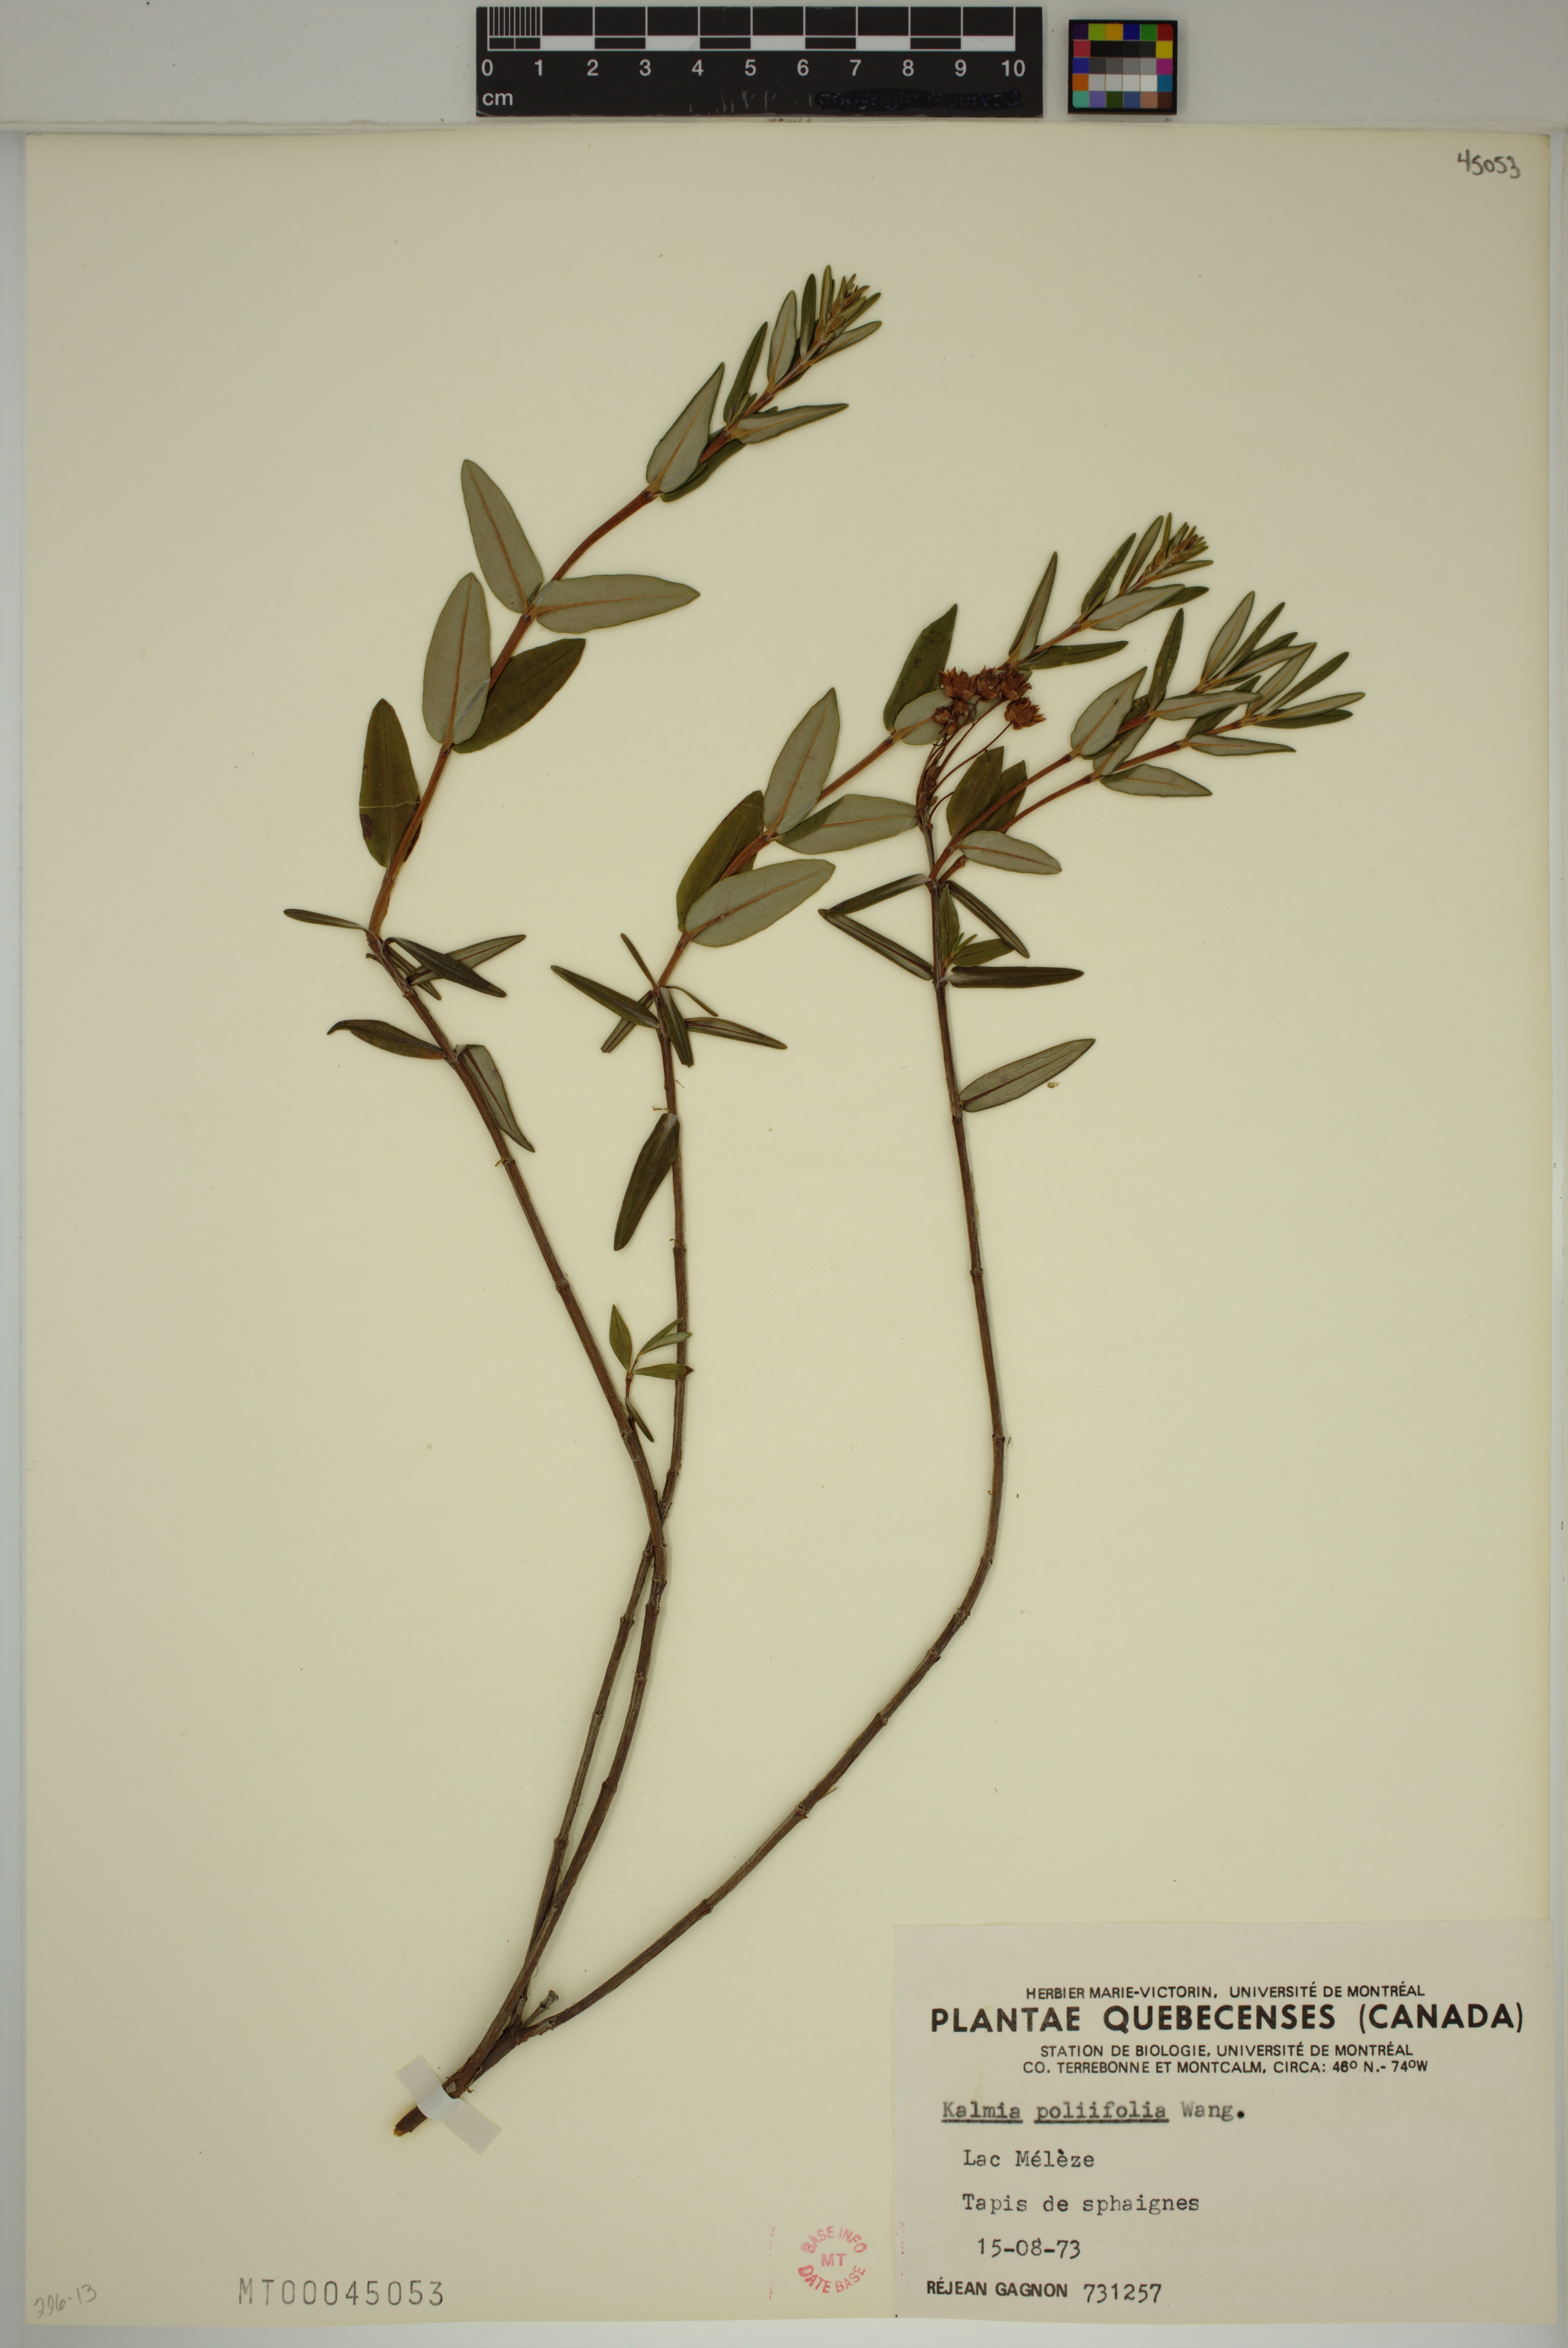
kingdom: Plantae
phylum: Tracheophyta
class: Magnoliopsida
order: Ericales
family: Ericaceae
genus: Kalmia
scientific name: Kalmia polifolia
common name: Bog-laurel
